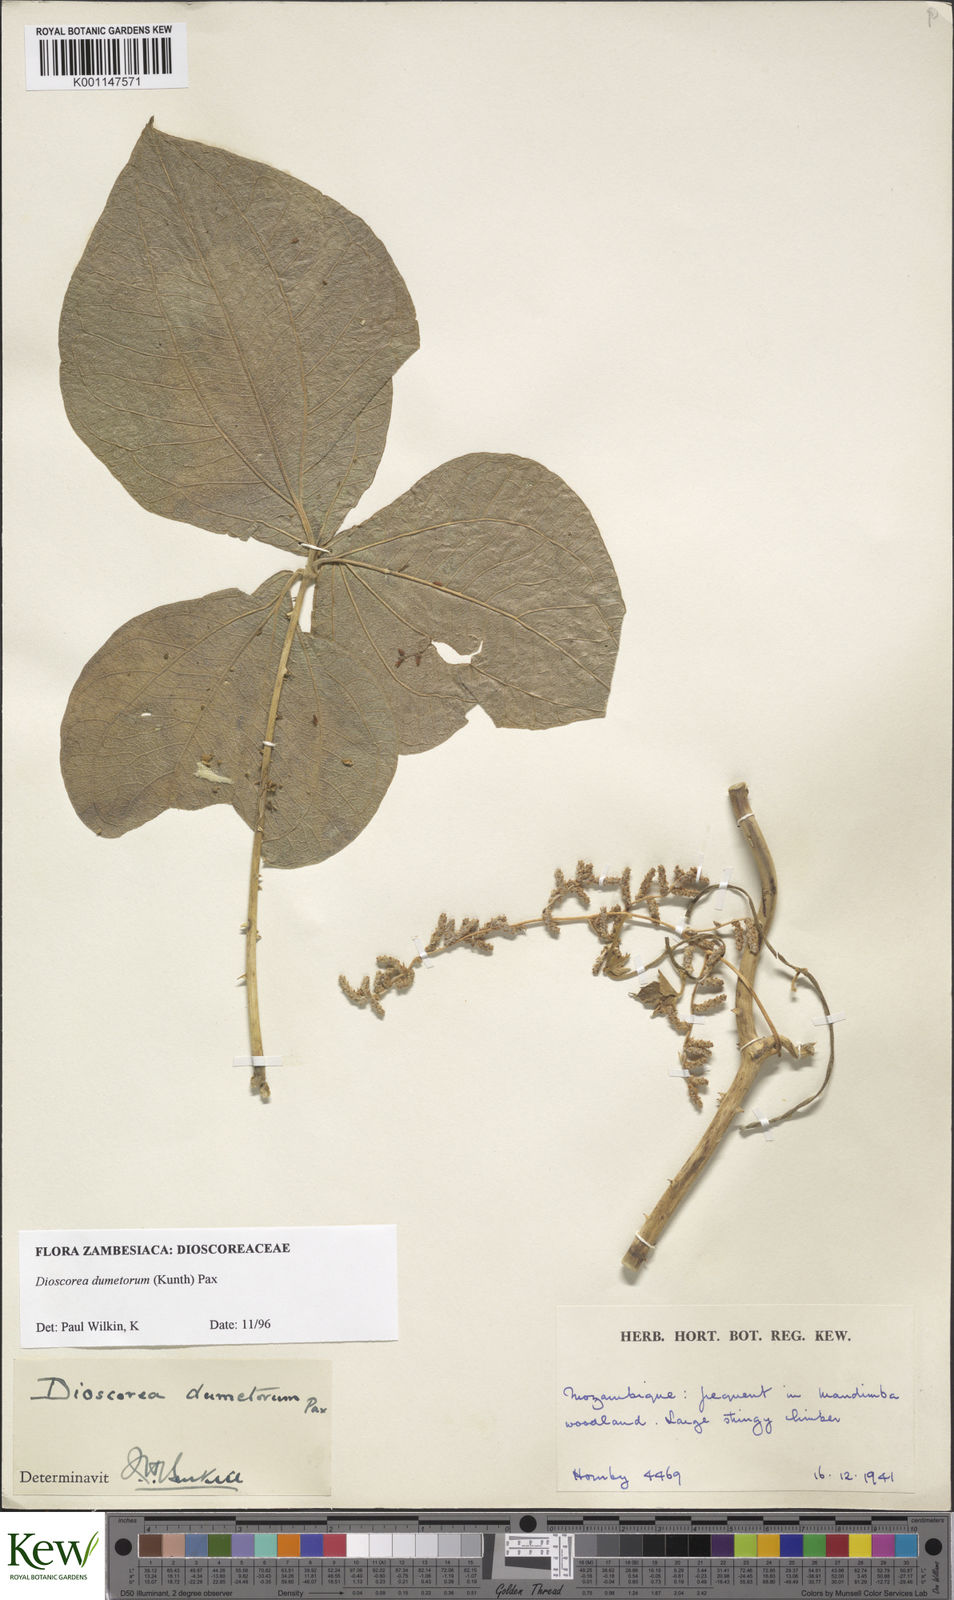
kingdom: Plantae
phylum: Tracheophyta
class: Liliopsida
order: Dioscoreales
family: Dioscoreaceae
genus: Dioscorea
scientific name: Dioscorea dumetorum
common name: African bitter yam
